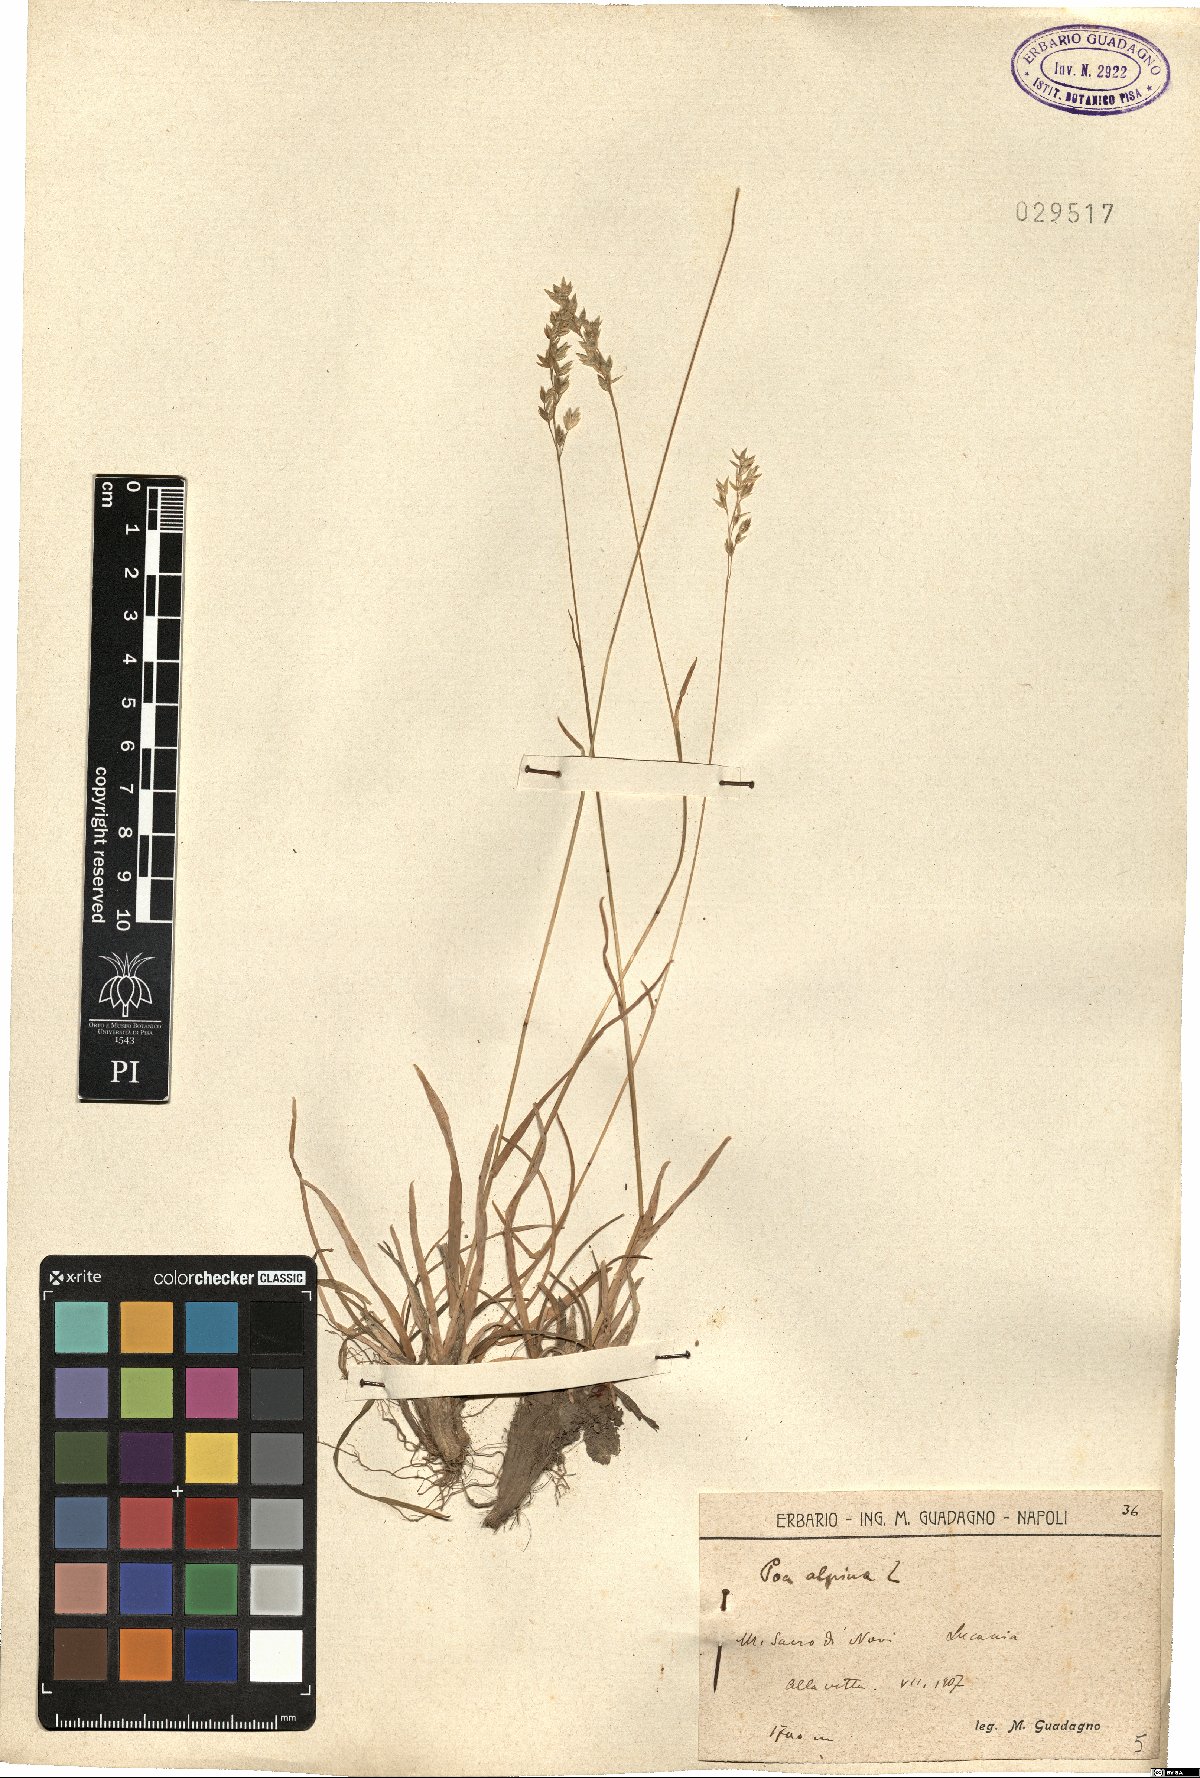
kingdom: Plantae
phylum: Tracheophyta
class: Liliopsida
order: Poales
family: Poaceae
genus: Poa
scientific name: Poa alpina
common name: Alpine bluegrass
